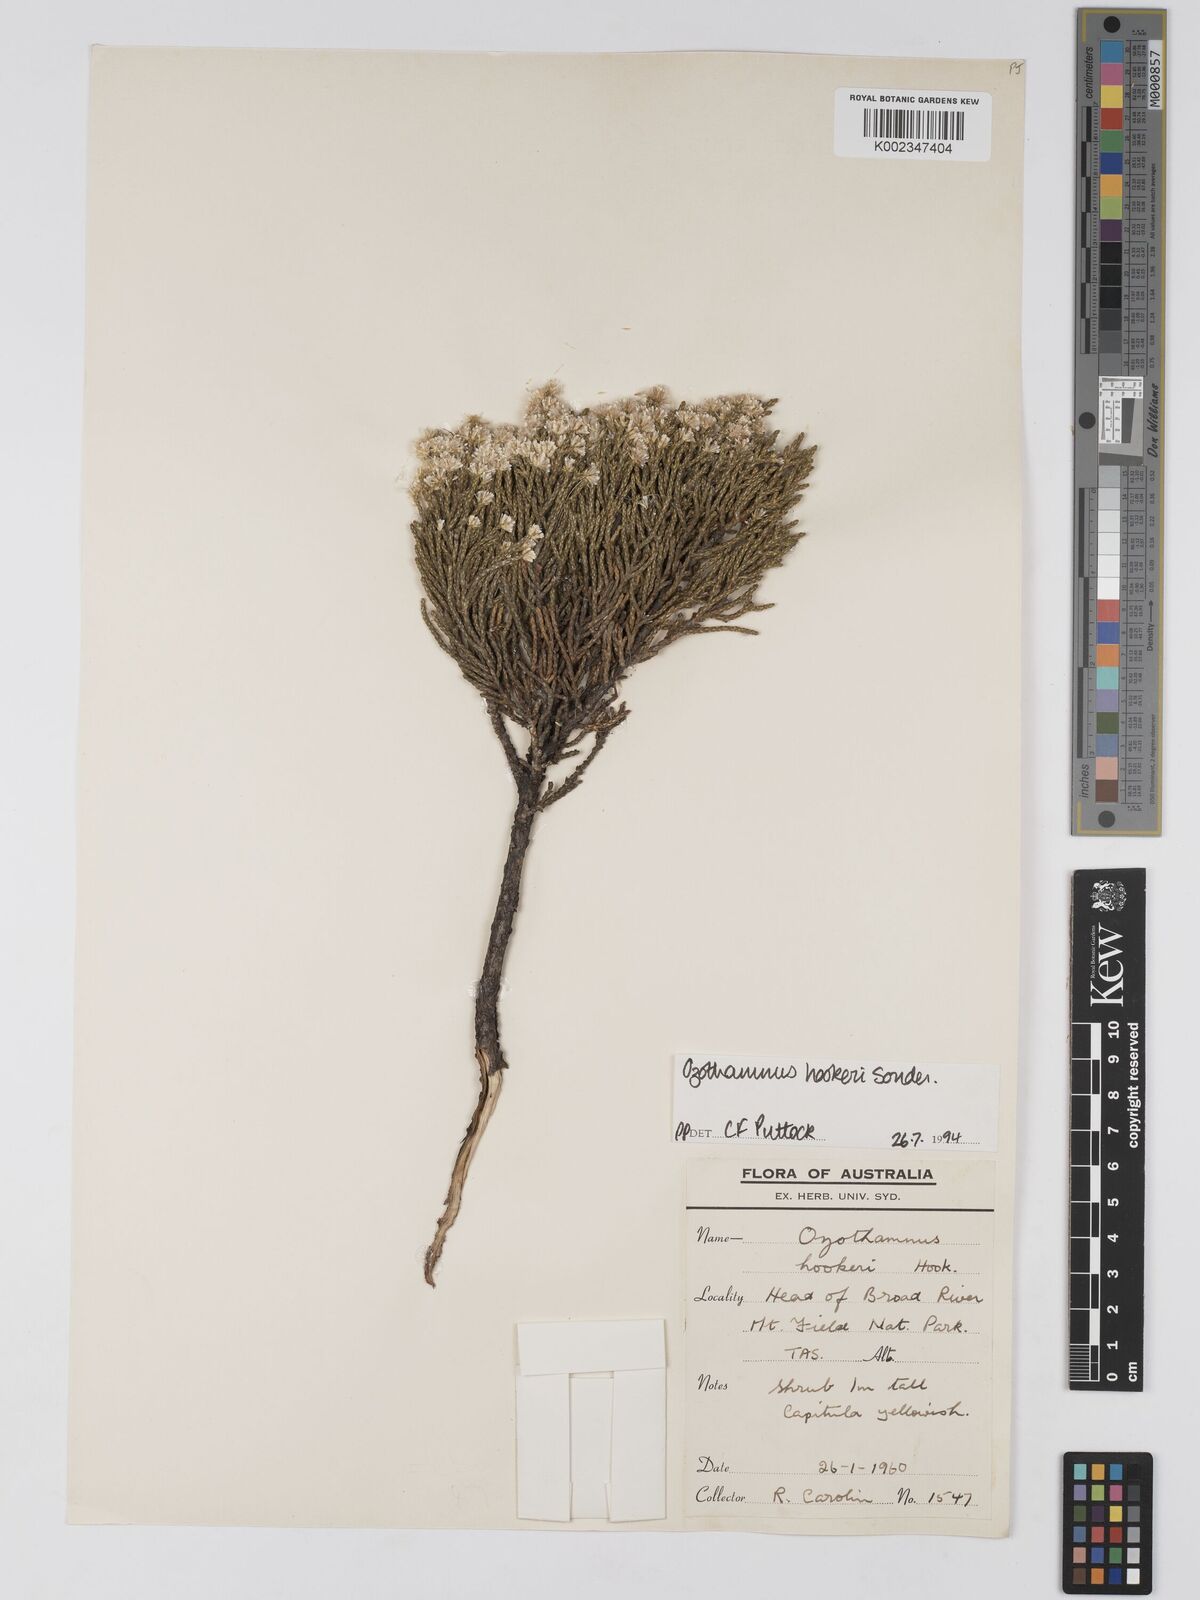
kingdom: Plantae
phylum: Tracheophyta
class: Magnoliopsida
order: Asterales
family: Asteraceae
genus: Ozothamnus
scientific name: Ozothamnus hookeri
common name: Kerosene-bush
